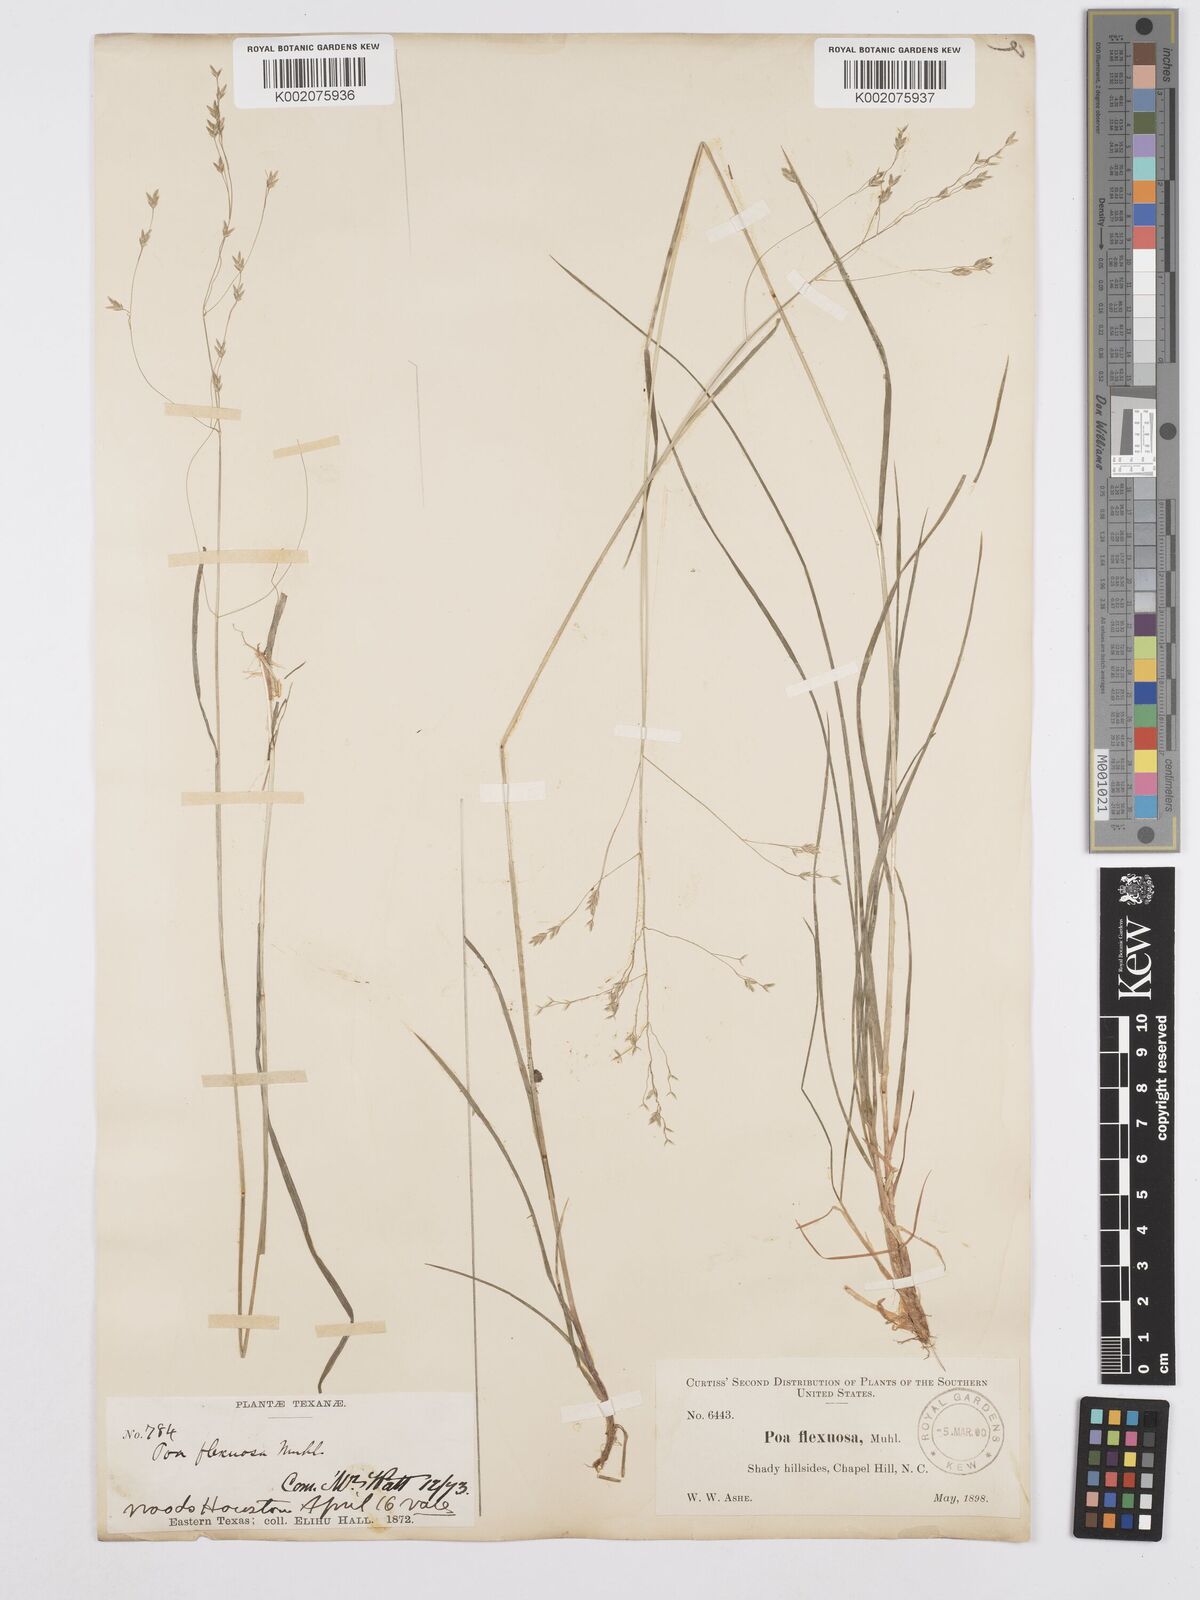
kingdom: Plantae
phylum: Tracheophyta
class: Liliopsida
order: Poales
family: Poaceae
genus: Poa
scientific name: Poa autumnalis
